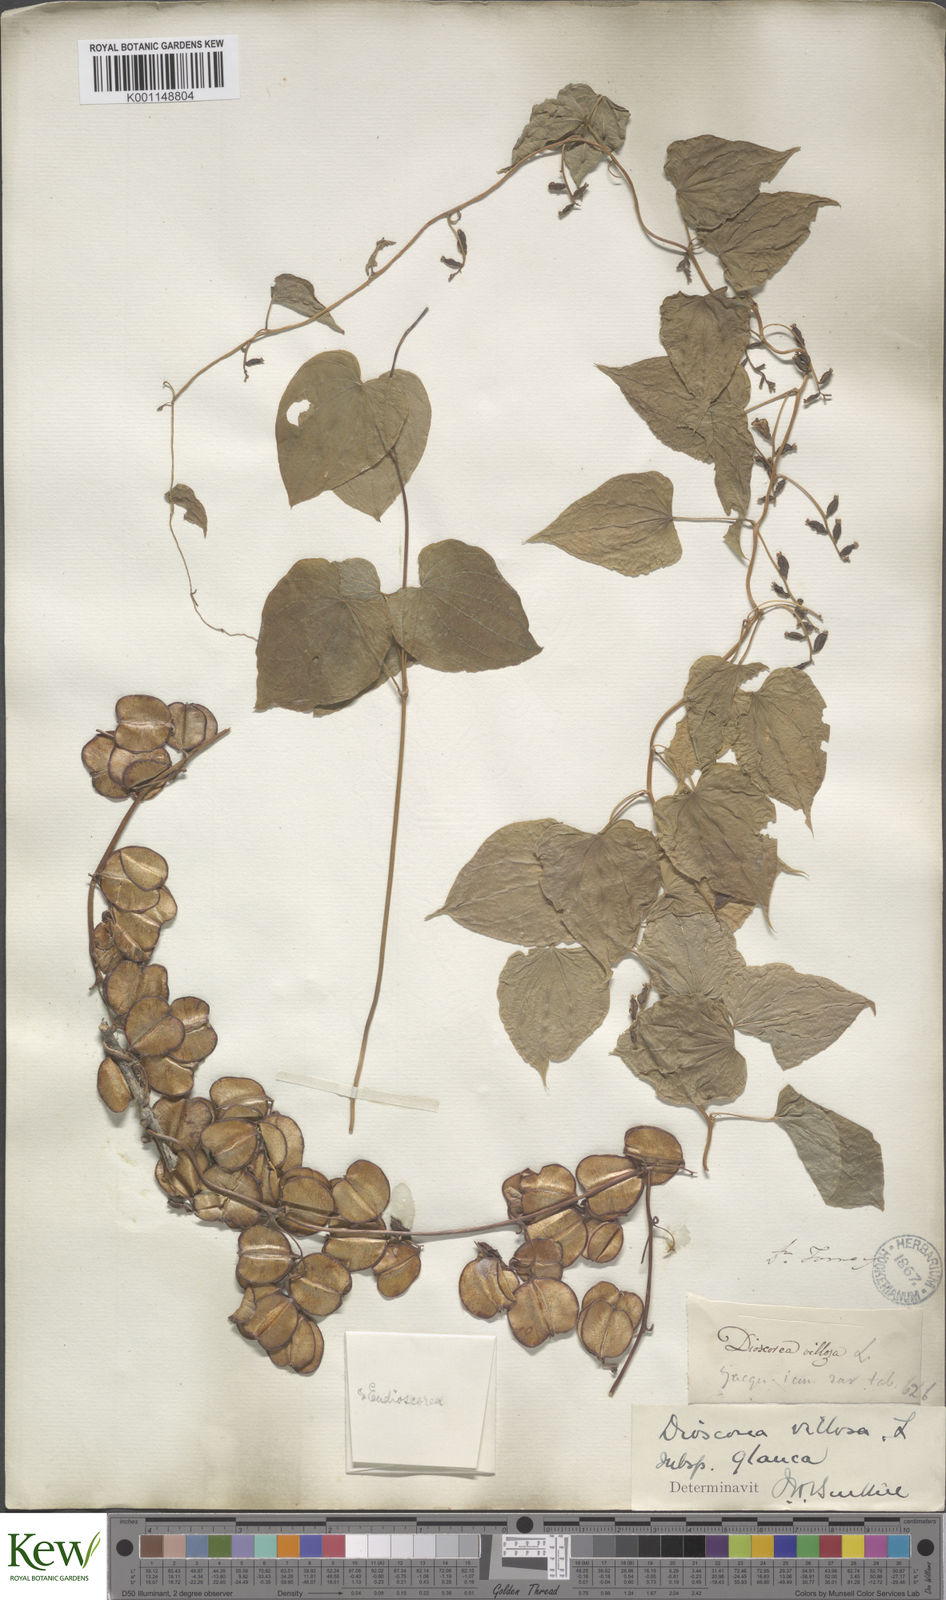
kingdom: Plantae
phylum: Tracheophyta
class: Liliopsida
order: Dioscoreales
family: Dioscoreaceae
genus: Dioscorea
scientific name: Dioscorea villosa
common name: Wild yam
